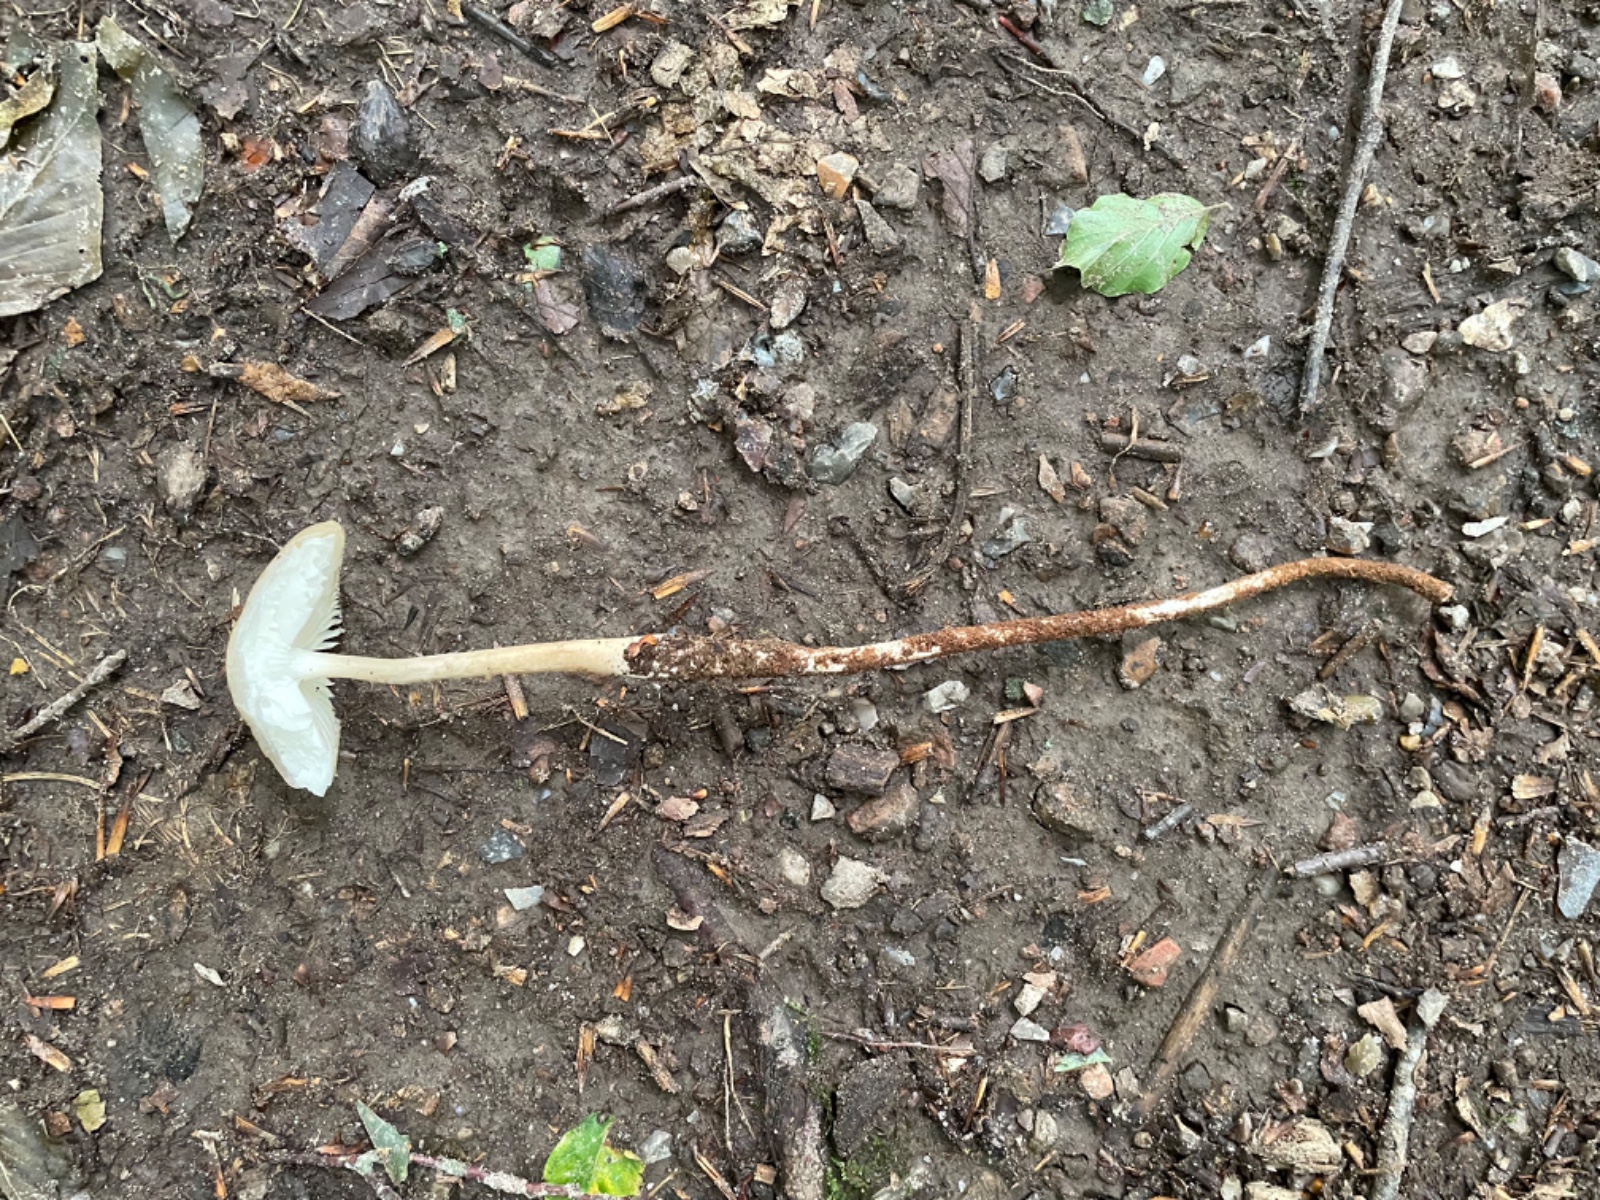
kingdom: Fungi
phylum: Basidiomycota
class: Agaricomycetes
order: Agaricales
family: Physalacriaceae
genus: Hymenopellis
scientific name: Hymenopellis radicata
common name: almindelig pælerodshat
